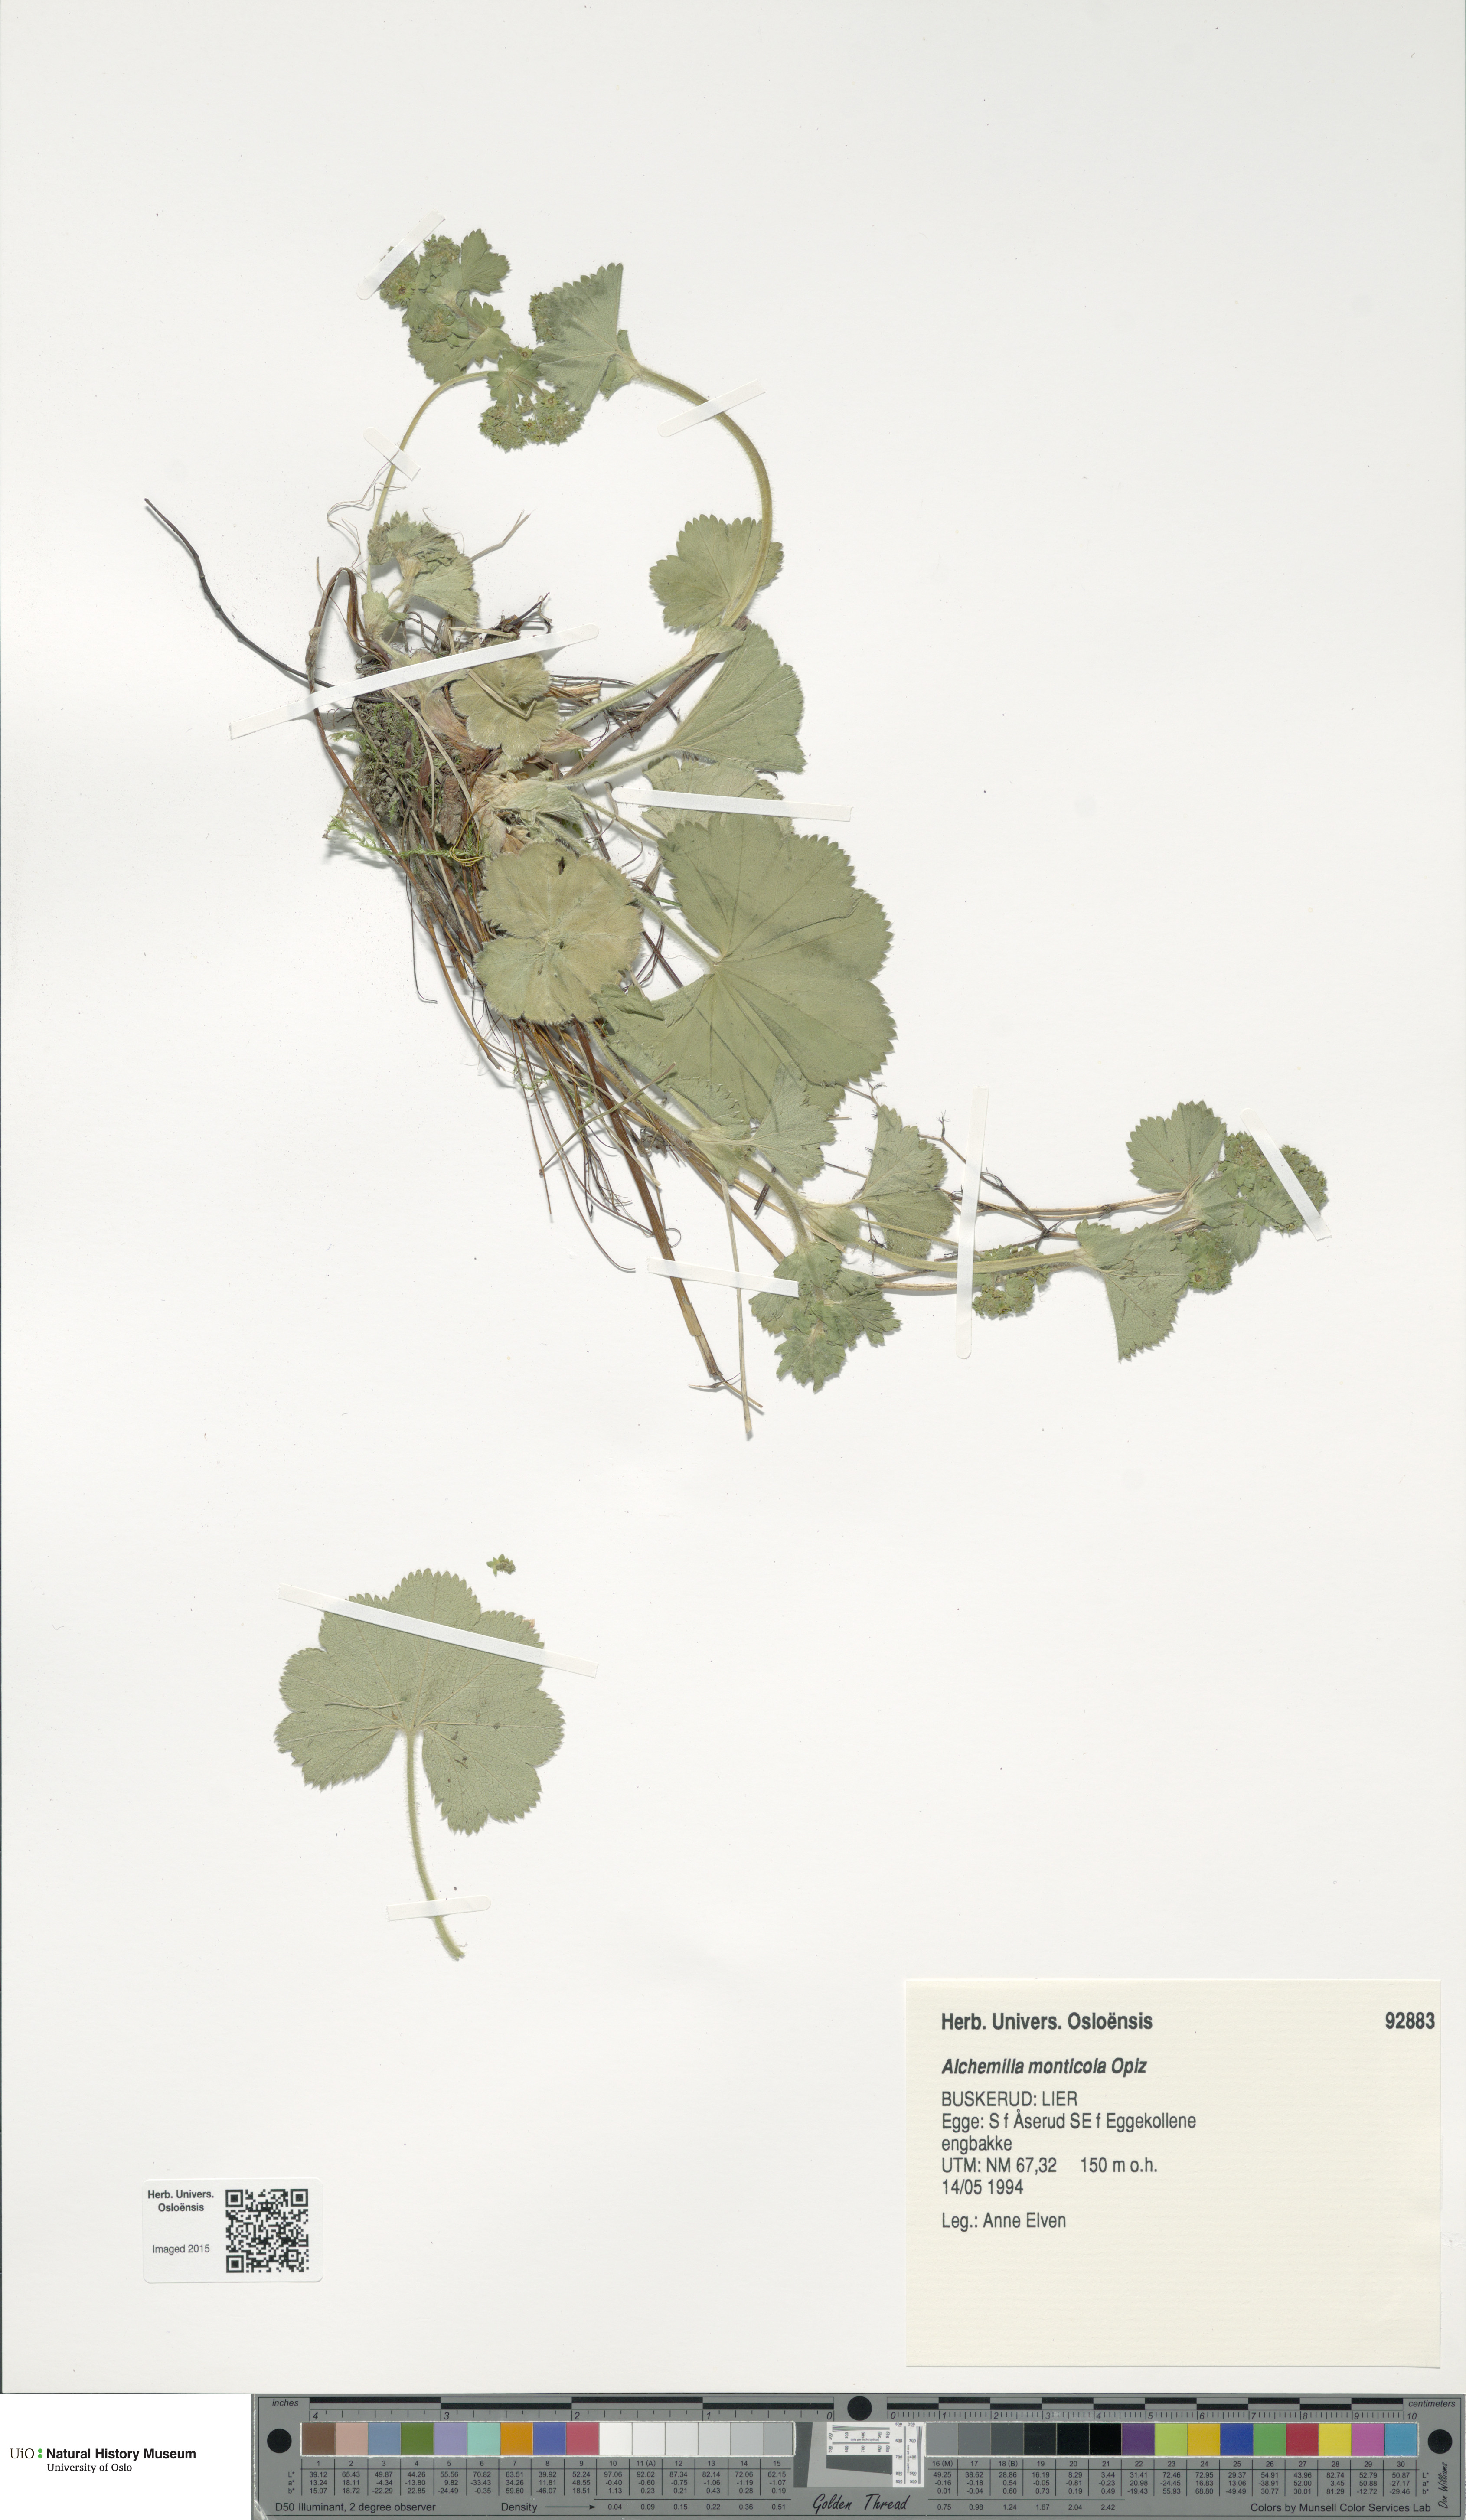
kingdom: Plantae
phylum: Tracheophyta
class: Magnoliopsida
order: Rosales
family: Rosaceae
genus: Alchemilla
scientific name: Alchemilla monticola
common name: Hairy lady's mantle
